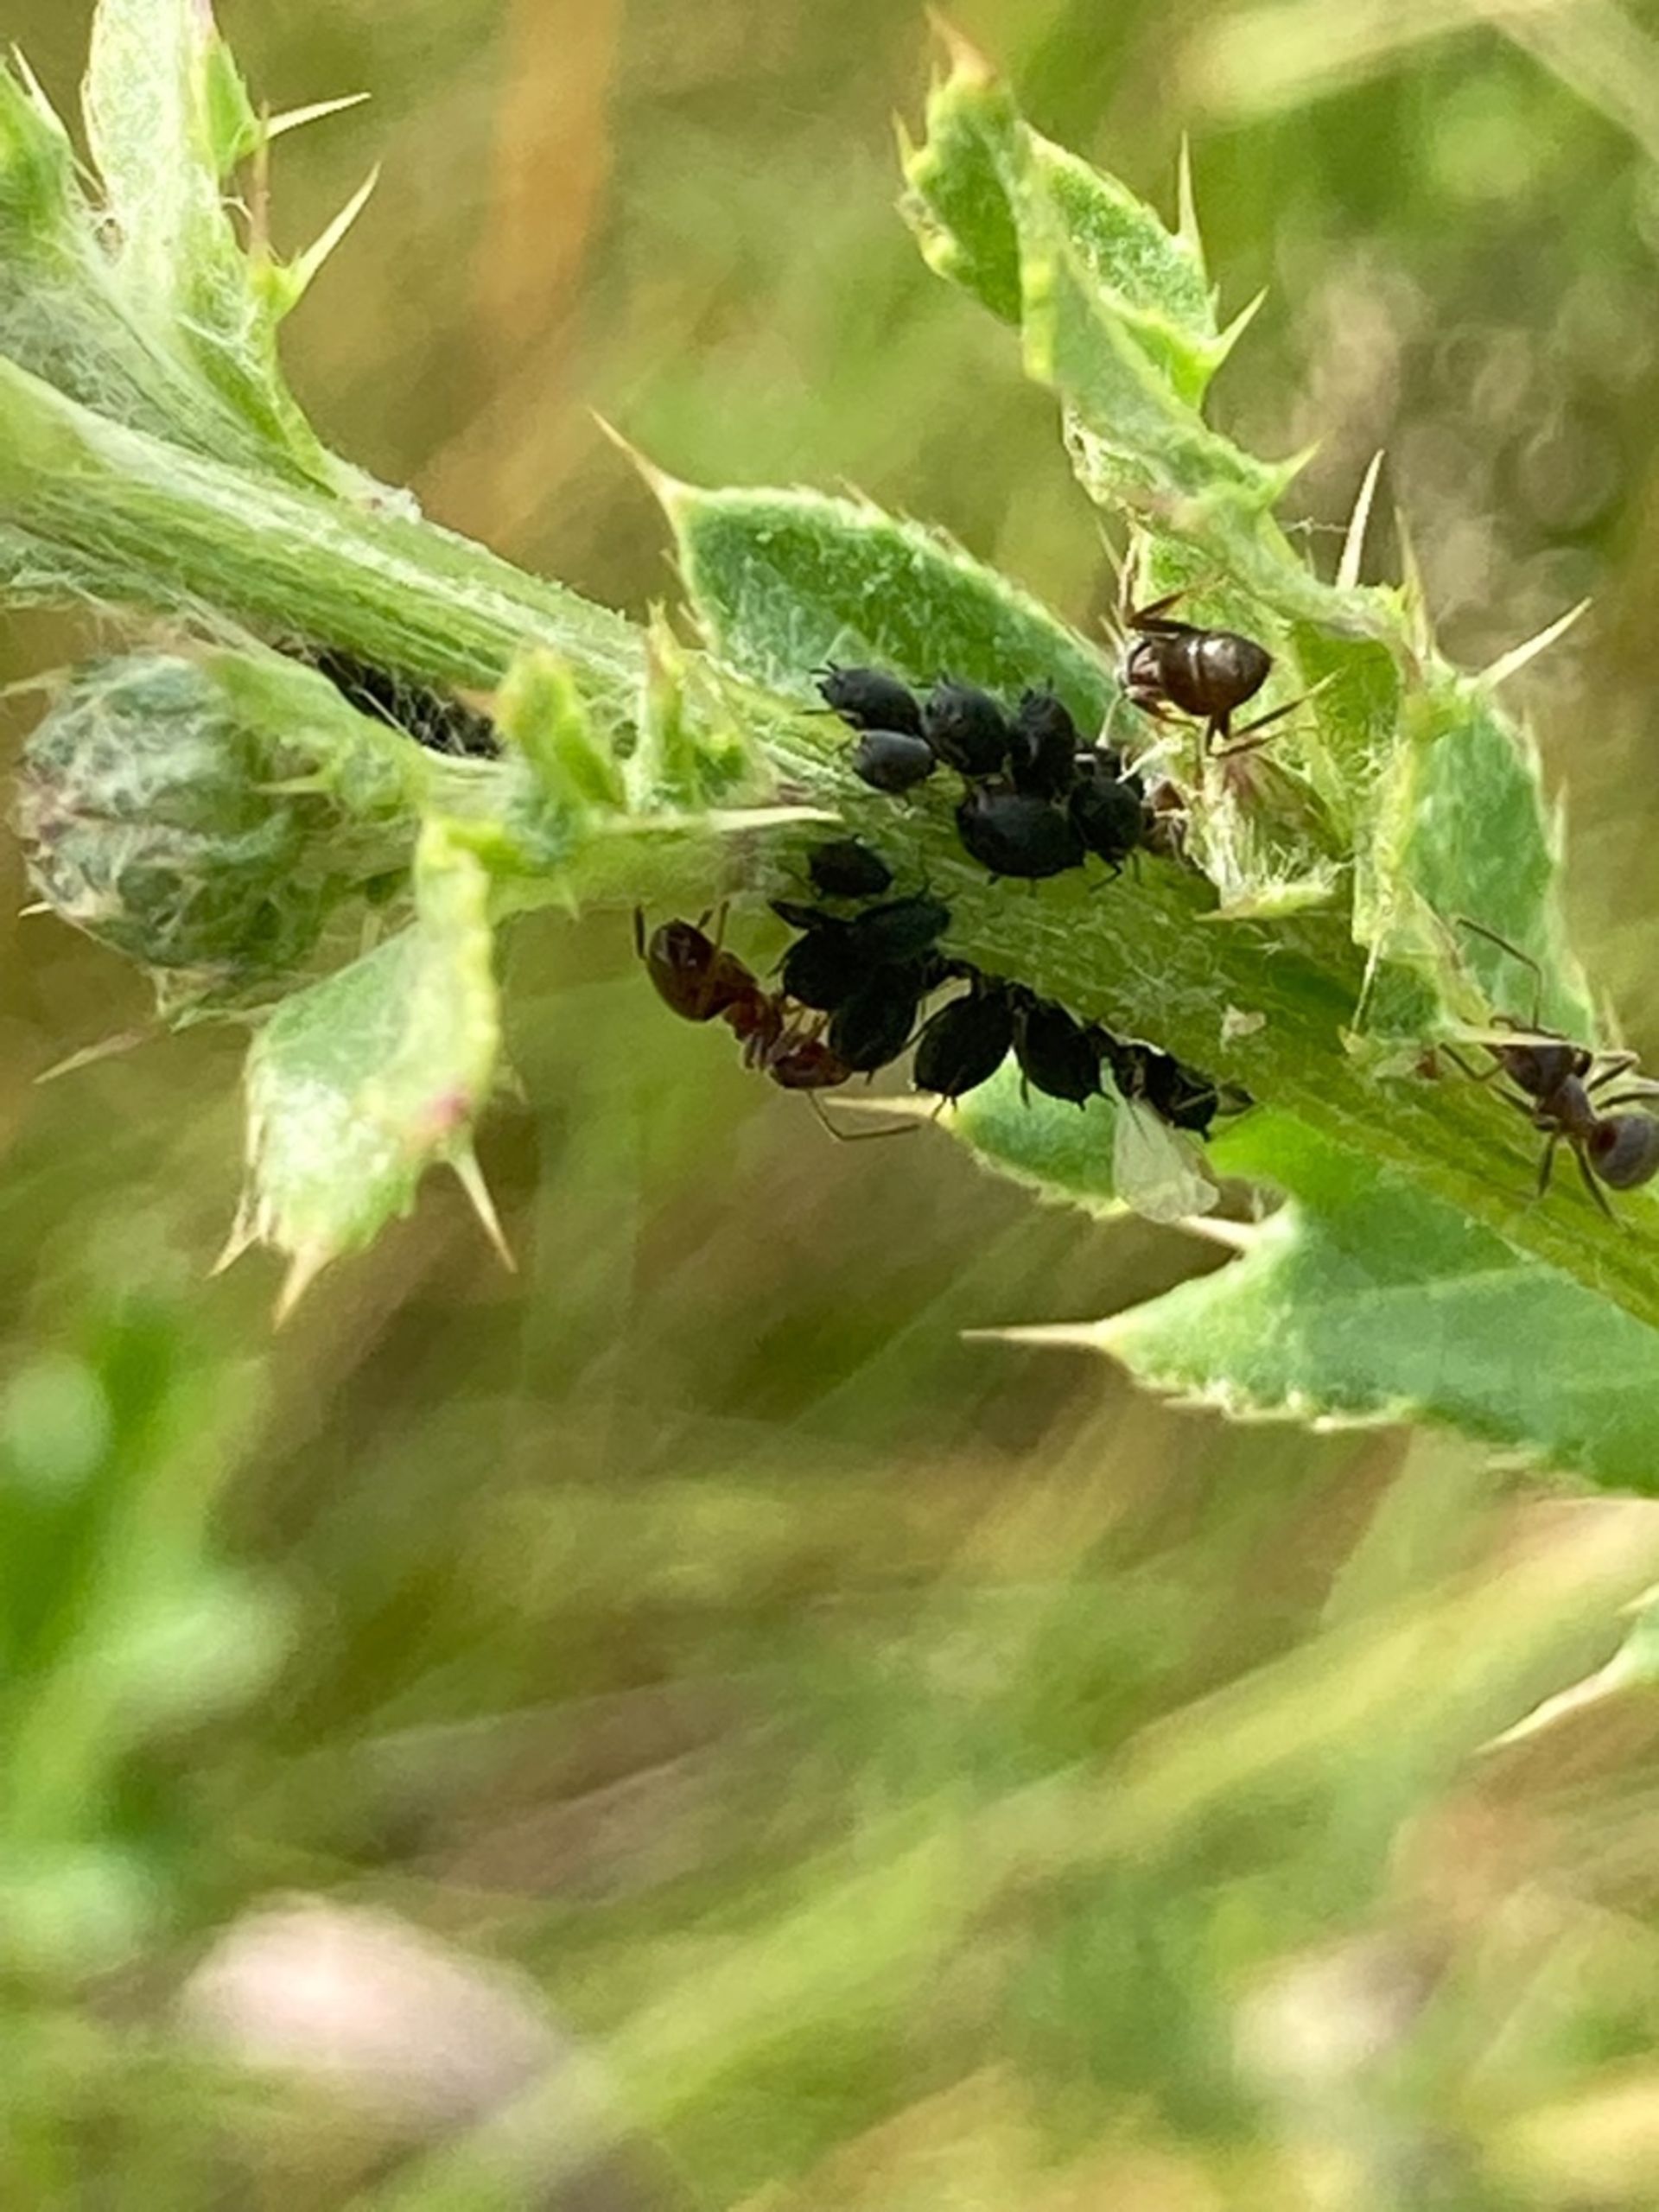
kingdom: Animalia
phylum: Arthropoda
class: Insecta
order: Hemiptera
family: Aphididae
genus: Aphis
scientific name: Aphis fabae
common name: Bedebladlus
